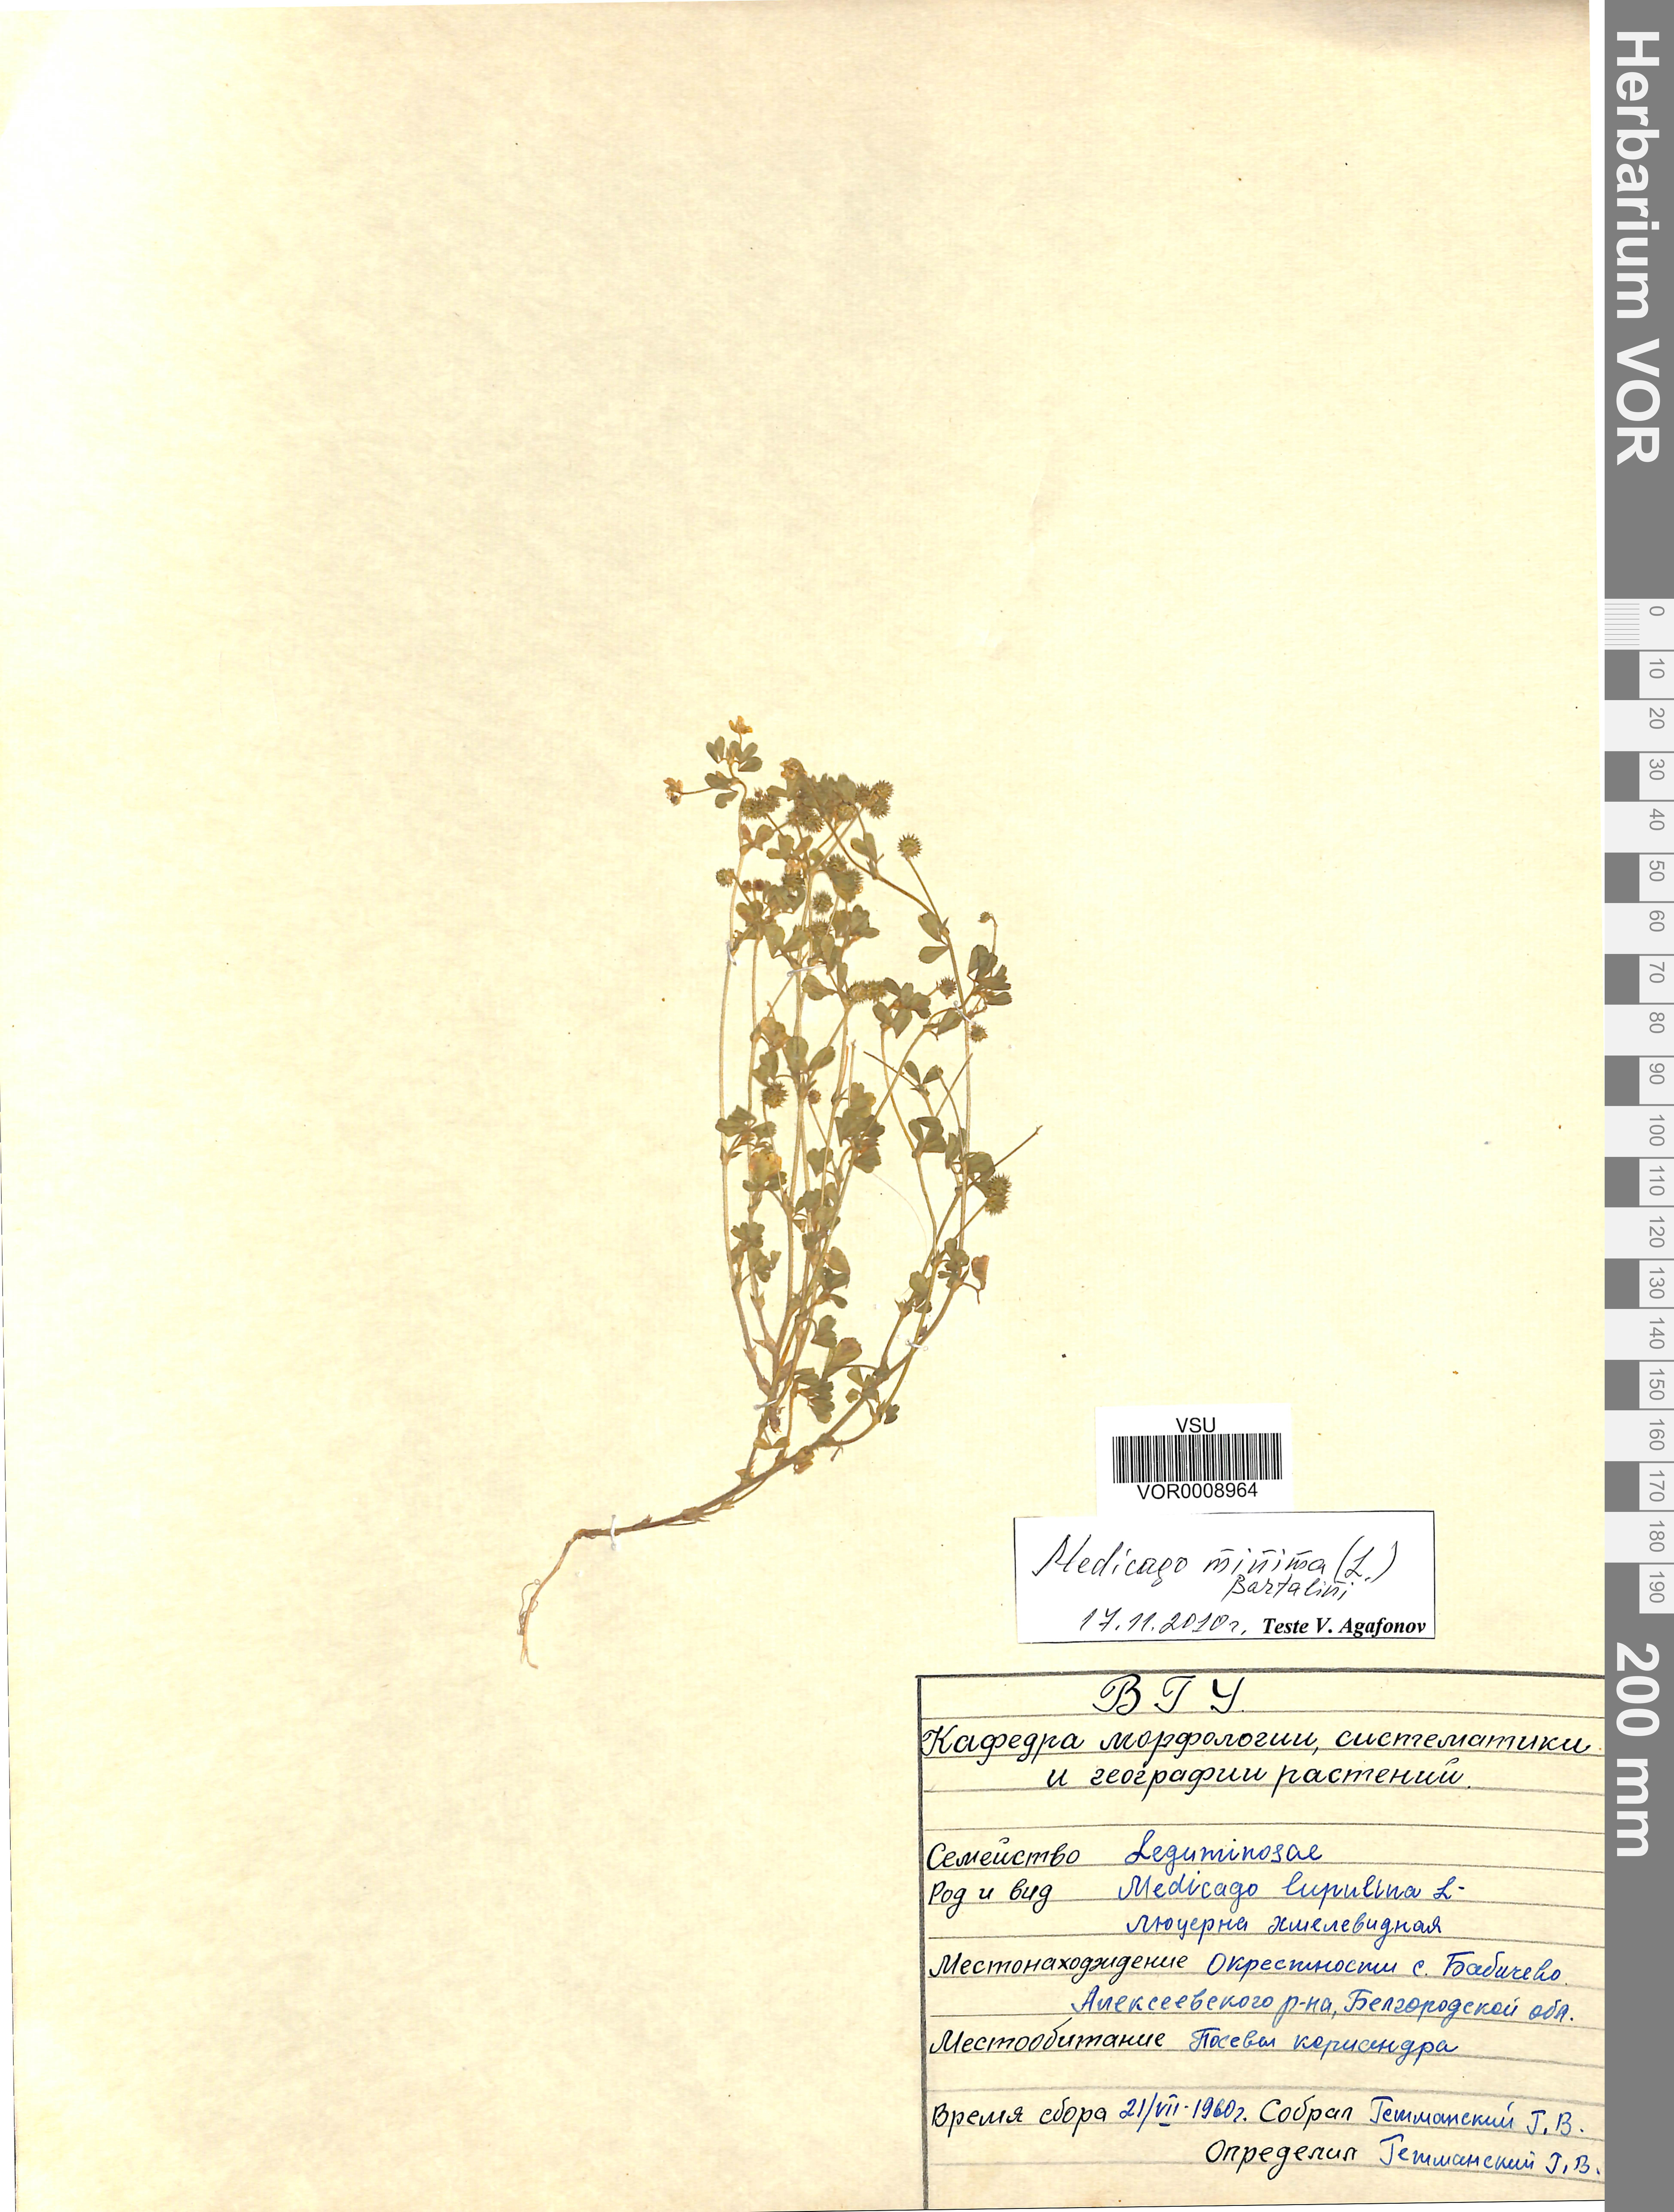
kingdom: Plantae
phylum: Tracheophyta
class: Magnoliopsida
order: Fabales
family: Fabaceae
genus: Medicago
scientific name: Medicago minima
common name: Little bur-clover
